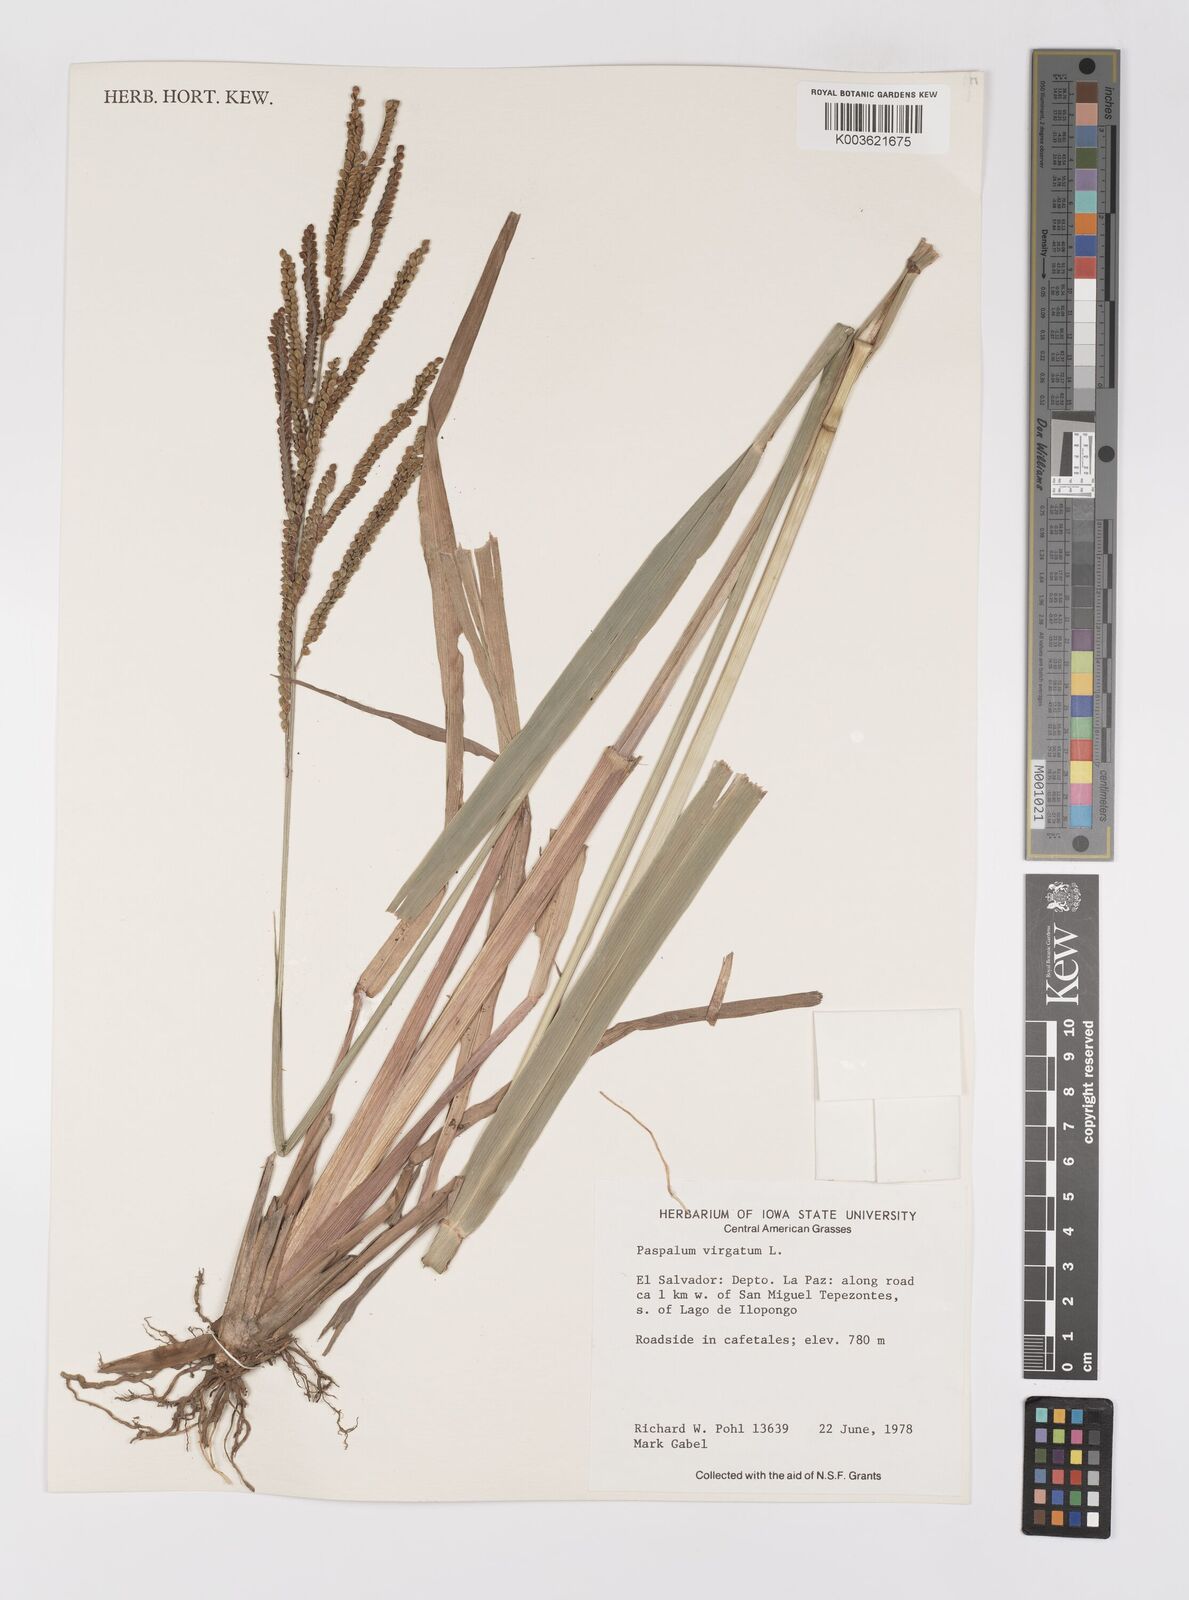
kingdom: Plantae
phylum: Tracheophyta
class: Liliopsida
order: Poales
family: Poaceae
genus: Paspalum
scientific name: Paspalum virgatum
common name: Talquezal
